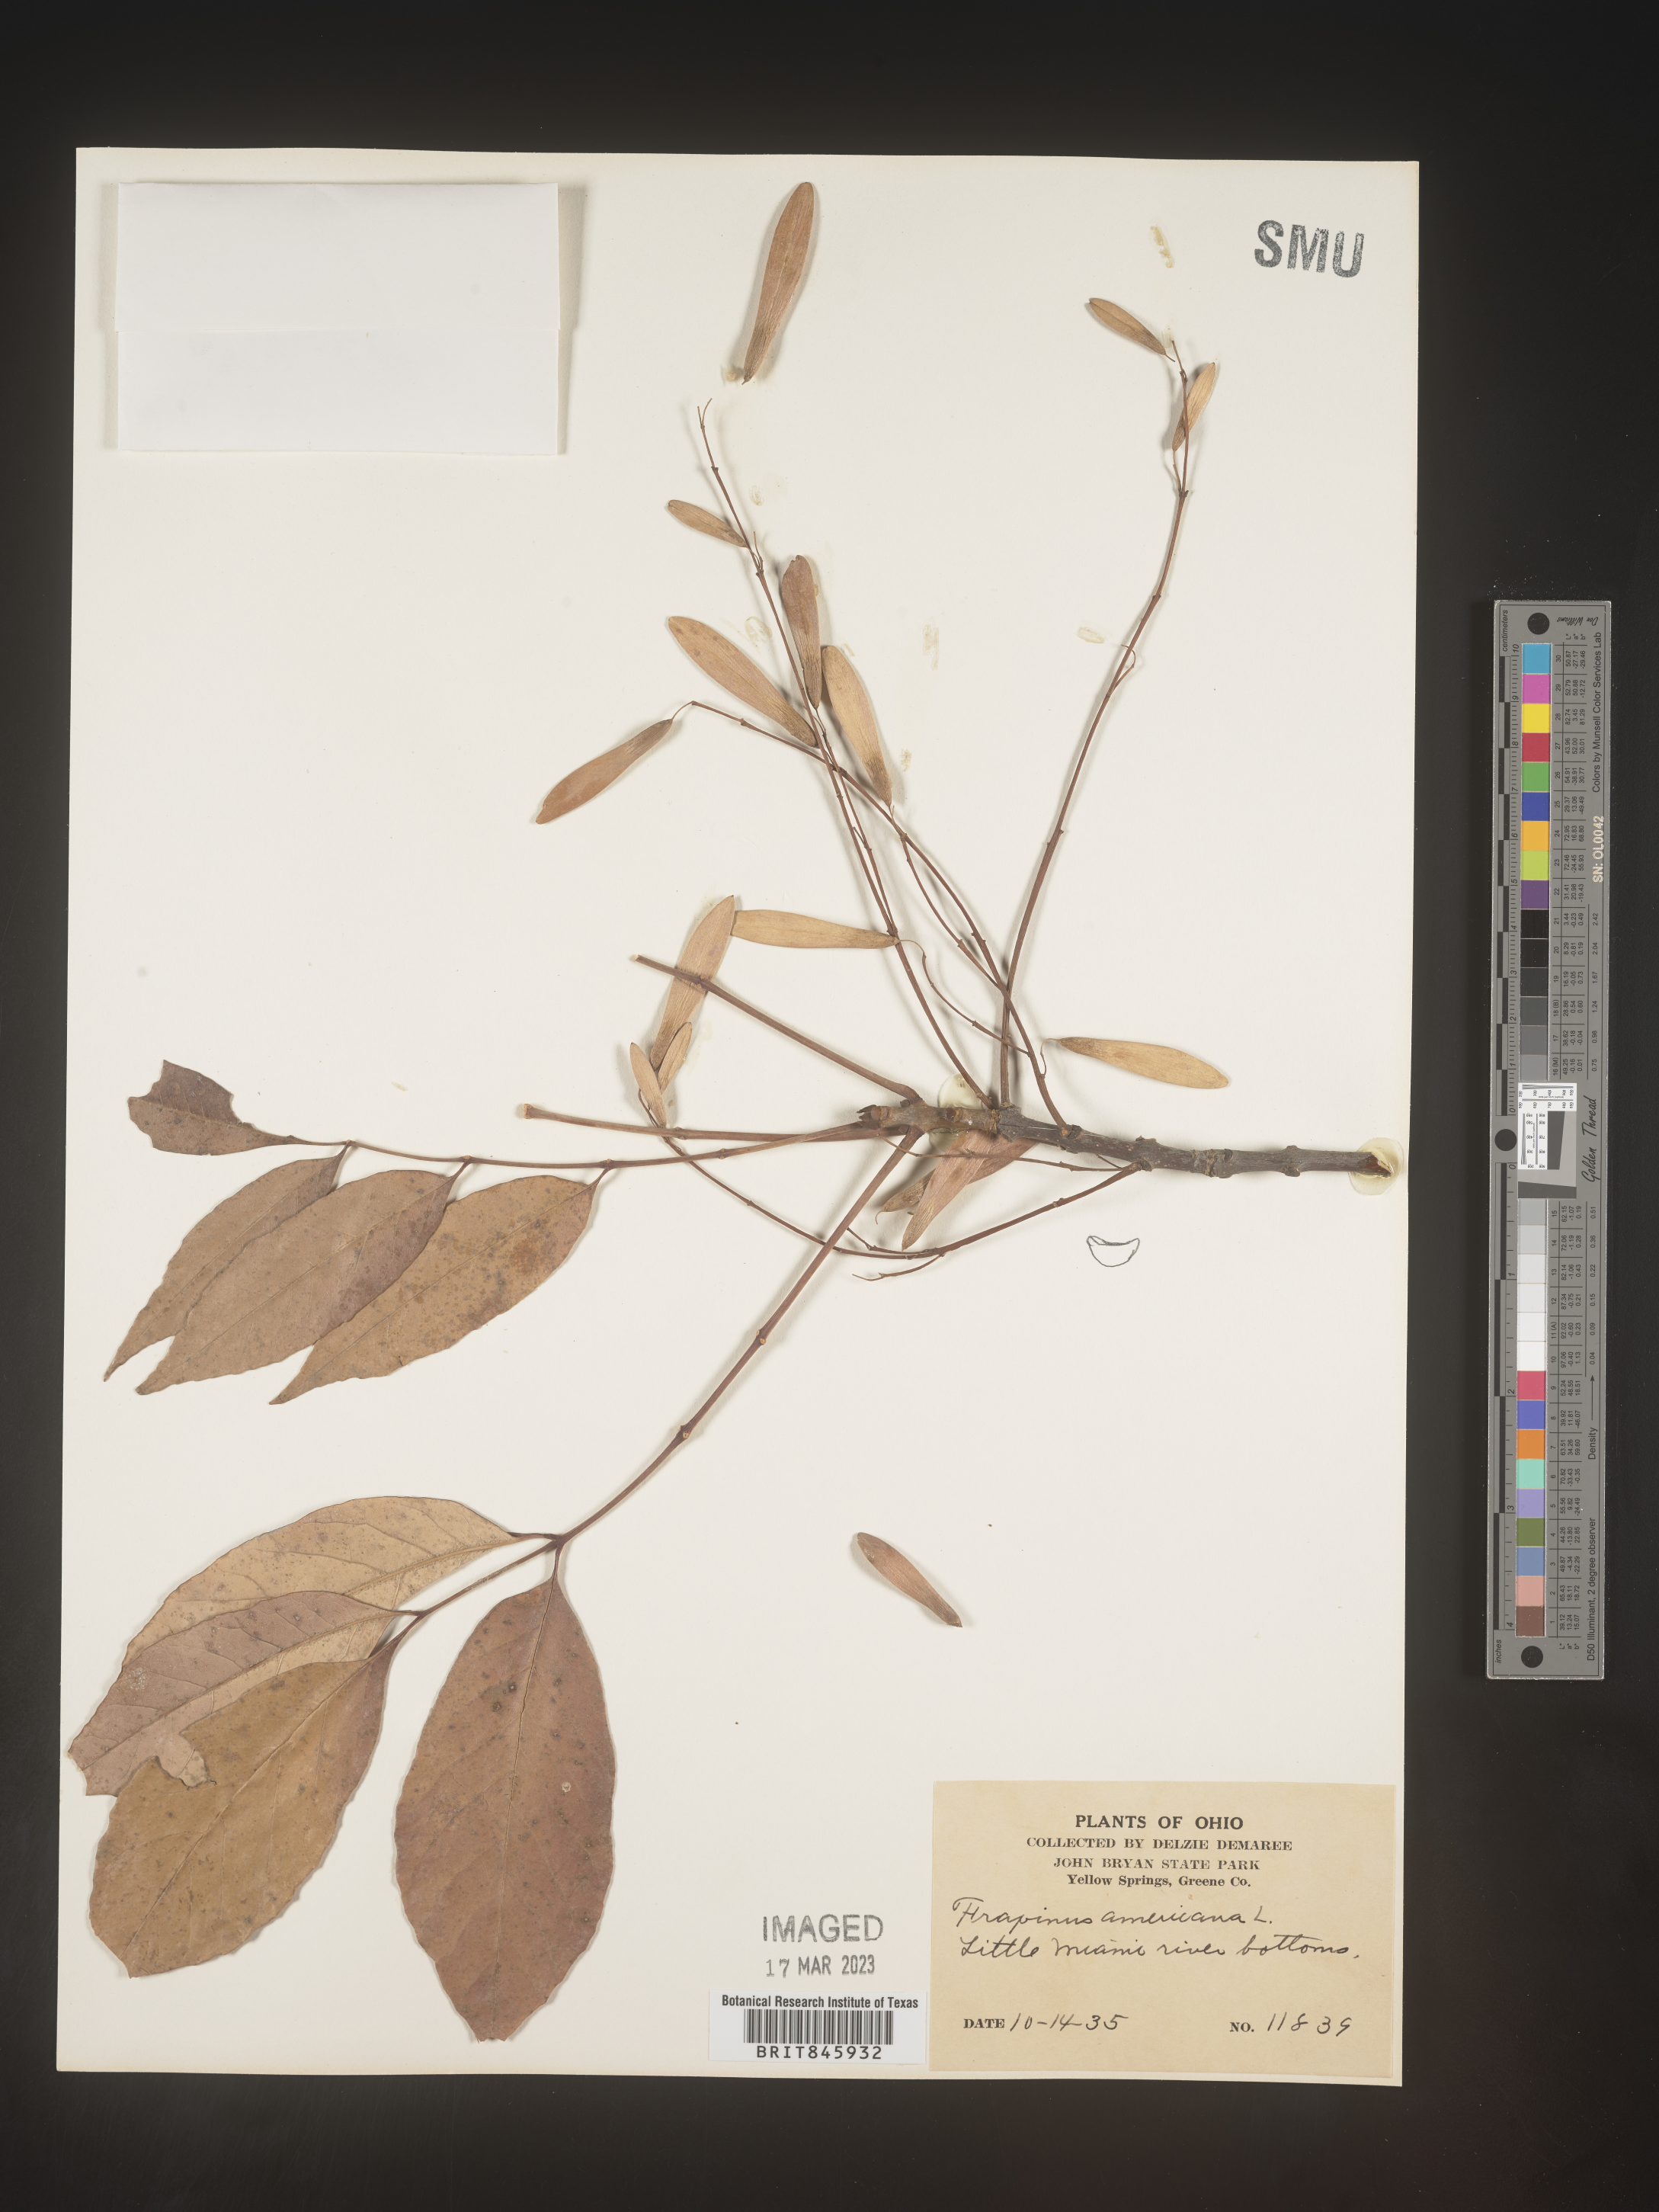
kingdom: Plantae
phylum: Tracheophyta
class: Magnoliopsida
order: Lamiales
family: Oleaceae
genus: Fraxinus
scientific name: Fraxinus americana
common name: White ash
